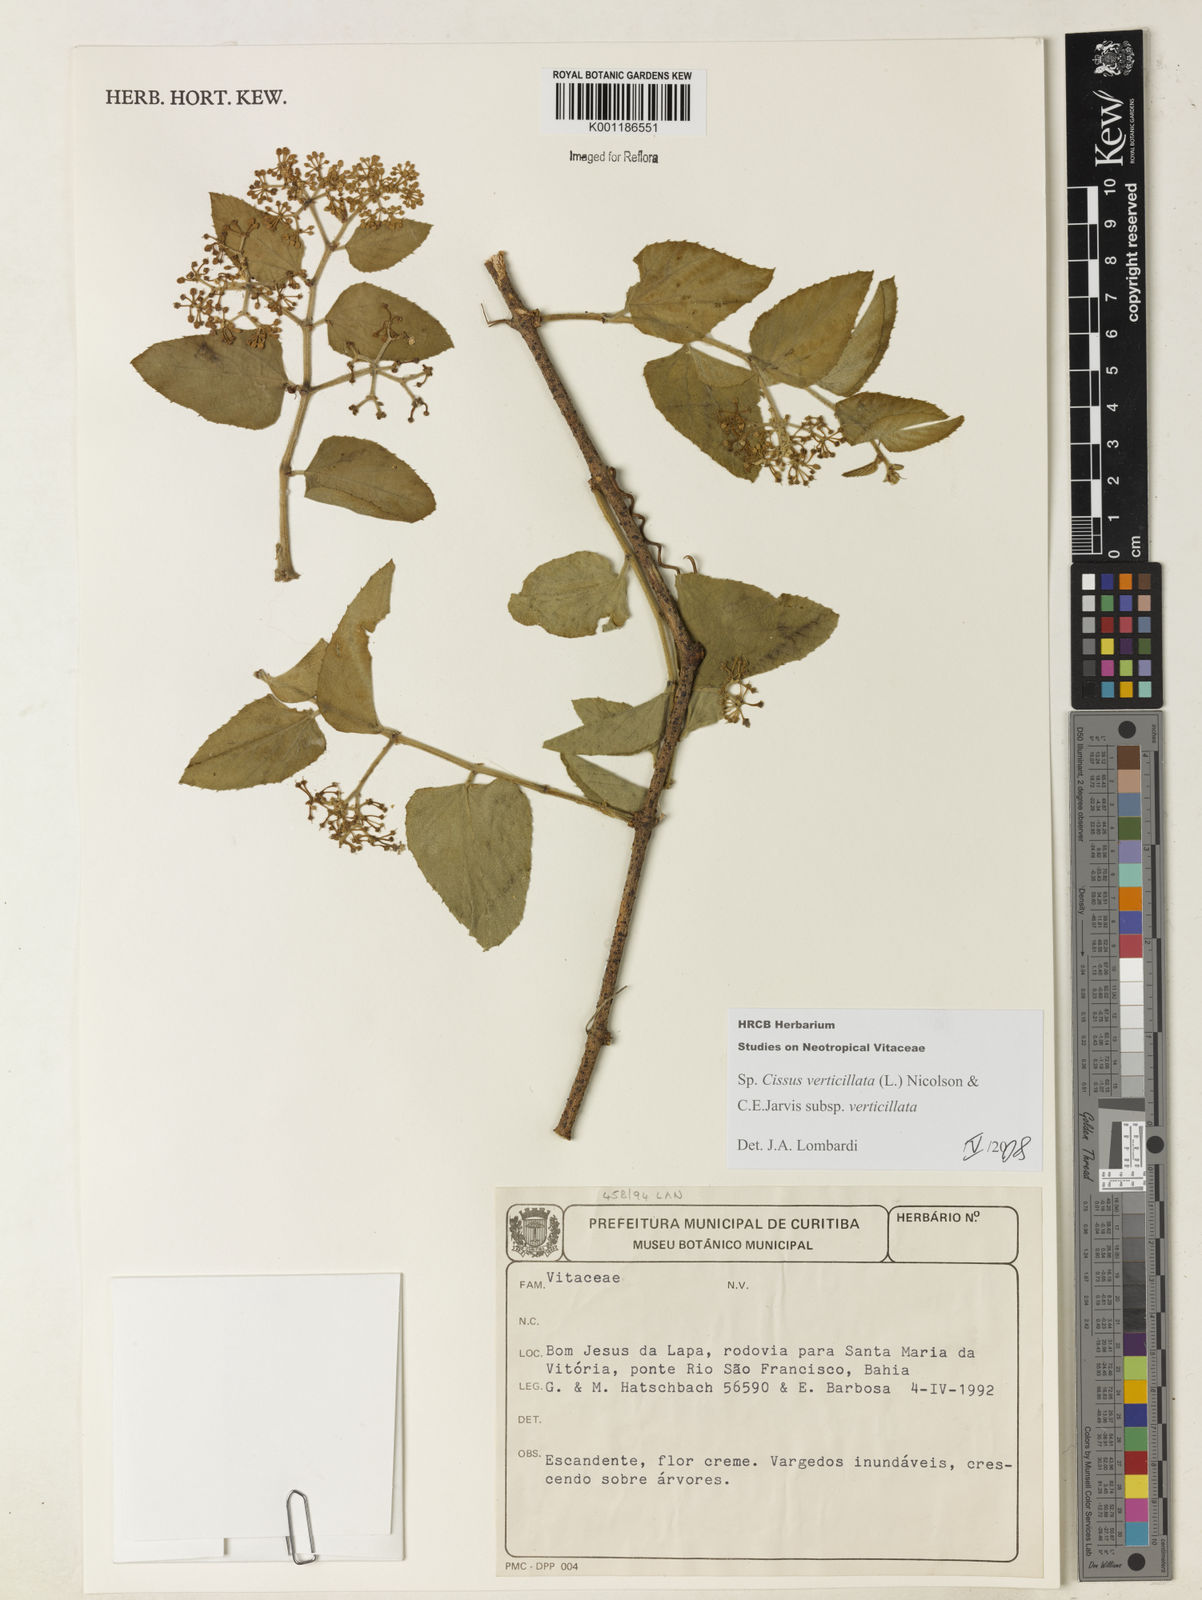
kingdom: Plantae
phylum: Tracheophyta
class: Magnoliopsida
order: Vitales
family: Vitaceae
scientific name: Vitaceae
